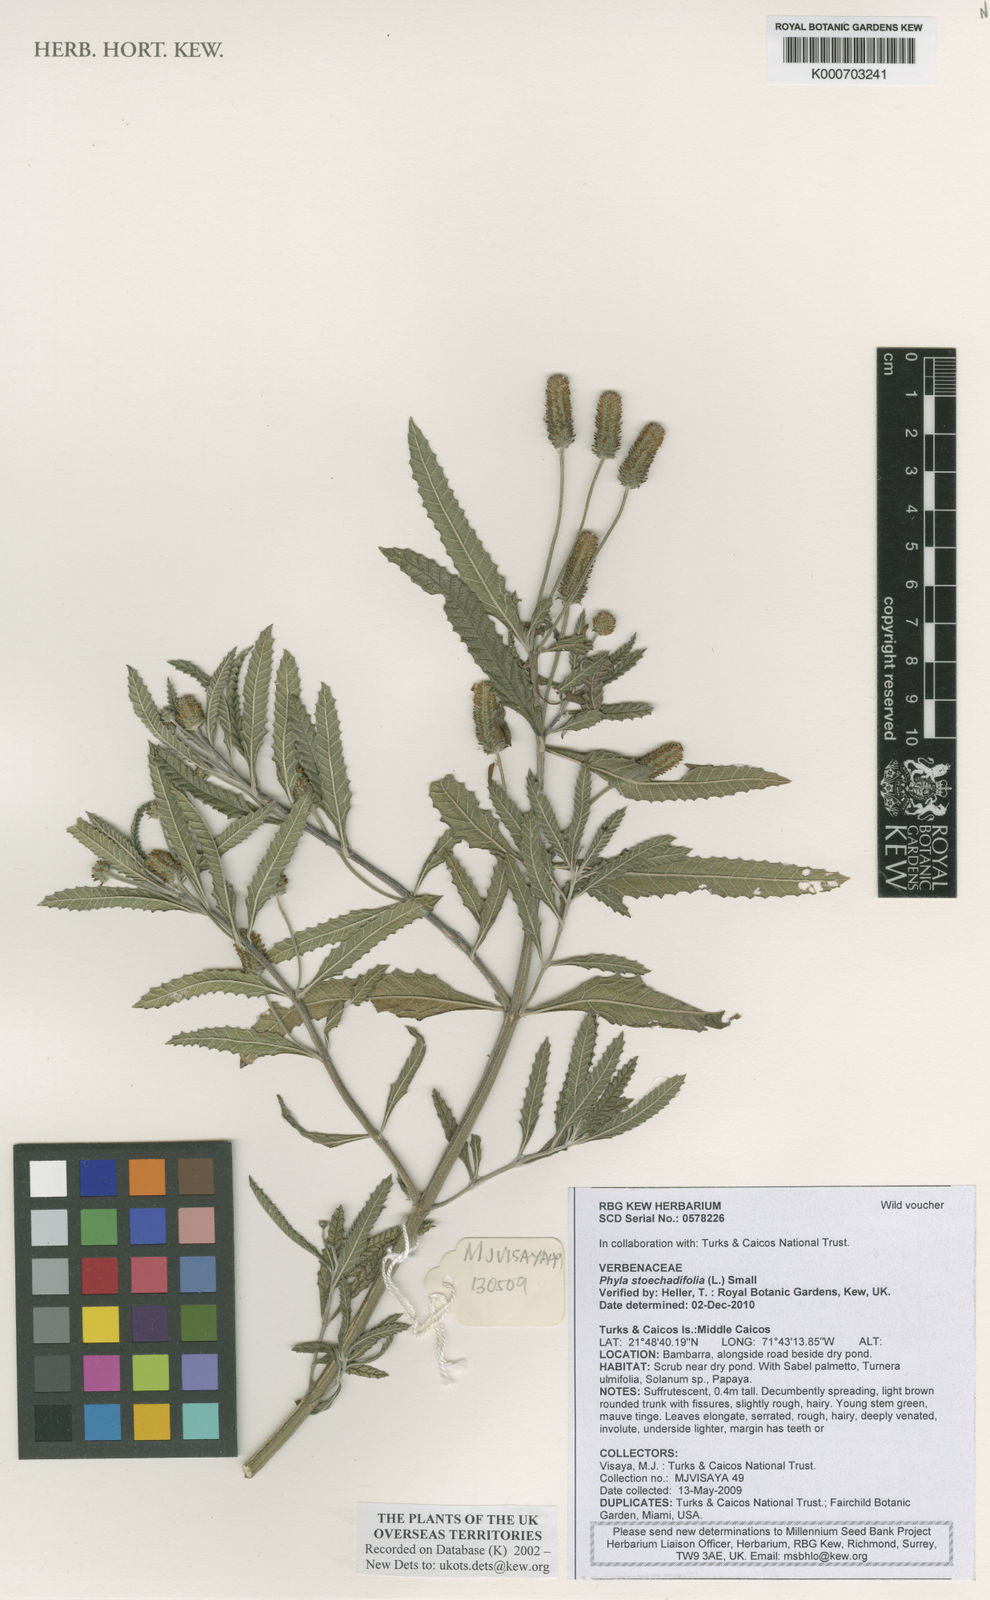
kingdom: Plantae
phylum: Tracheophyta
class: Magnoliopsida
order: Lamiales
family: Verbenaceae
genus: Lippia
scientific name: Lippia stoechadifolia
